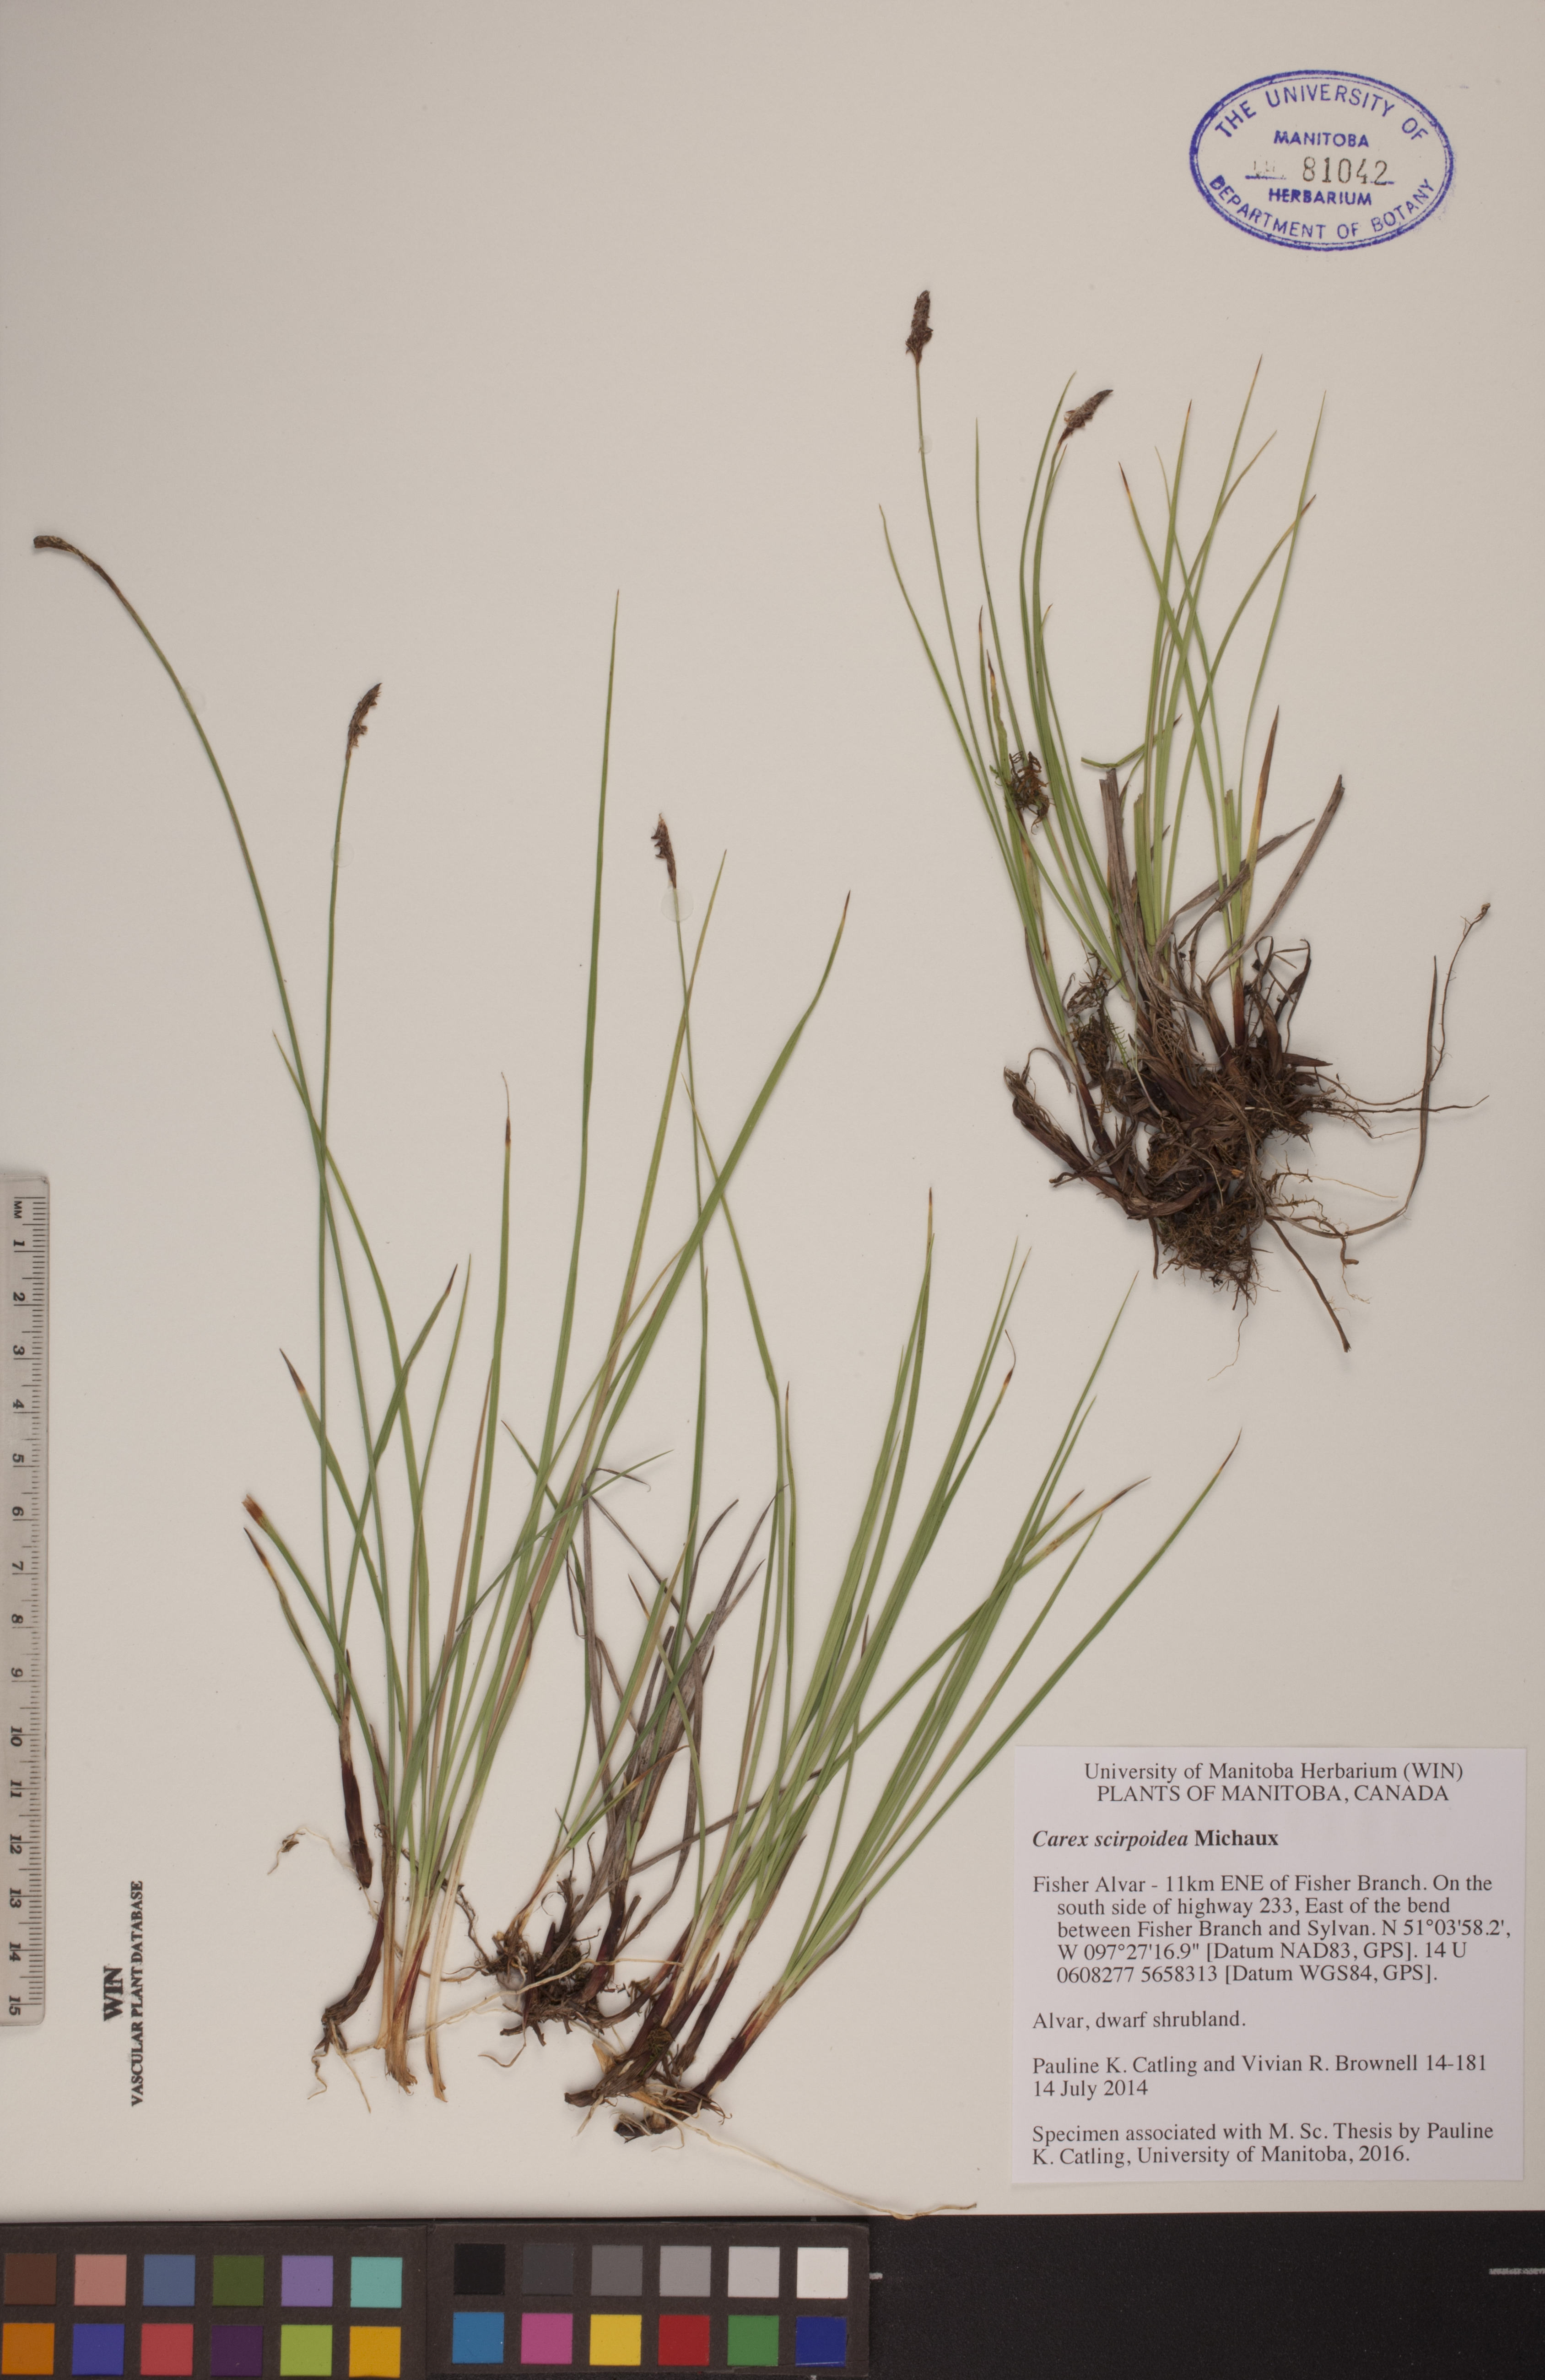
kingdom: Plantae
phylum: Tracheophyta
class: Liliopsida
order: Poales
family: Cyperaceae
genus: Carex
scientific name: Carex scirpoidea
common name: Canada single-spike sedge
